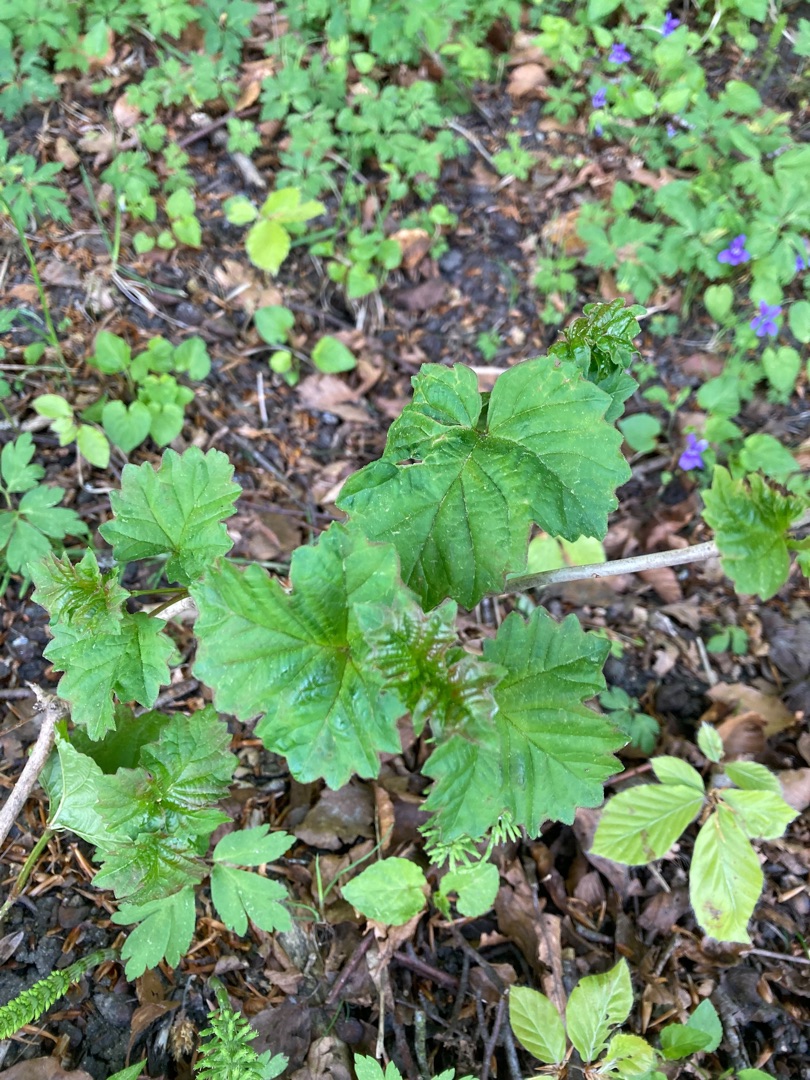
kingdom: Plantae
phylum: Tracheophyta
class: Magnoliopsida
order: Dipsacales
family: Viburnaceae
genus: Viburnum
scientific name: Viburnum opulus
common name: Kvalkved
